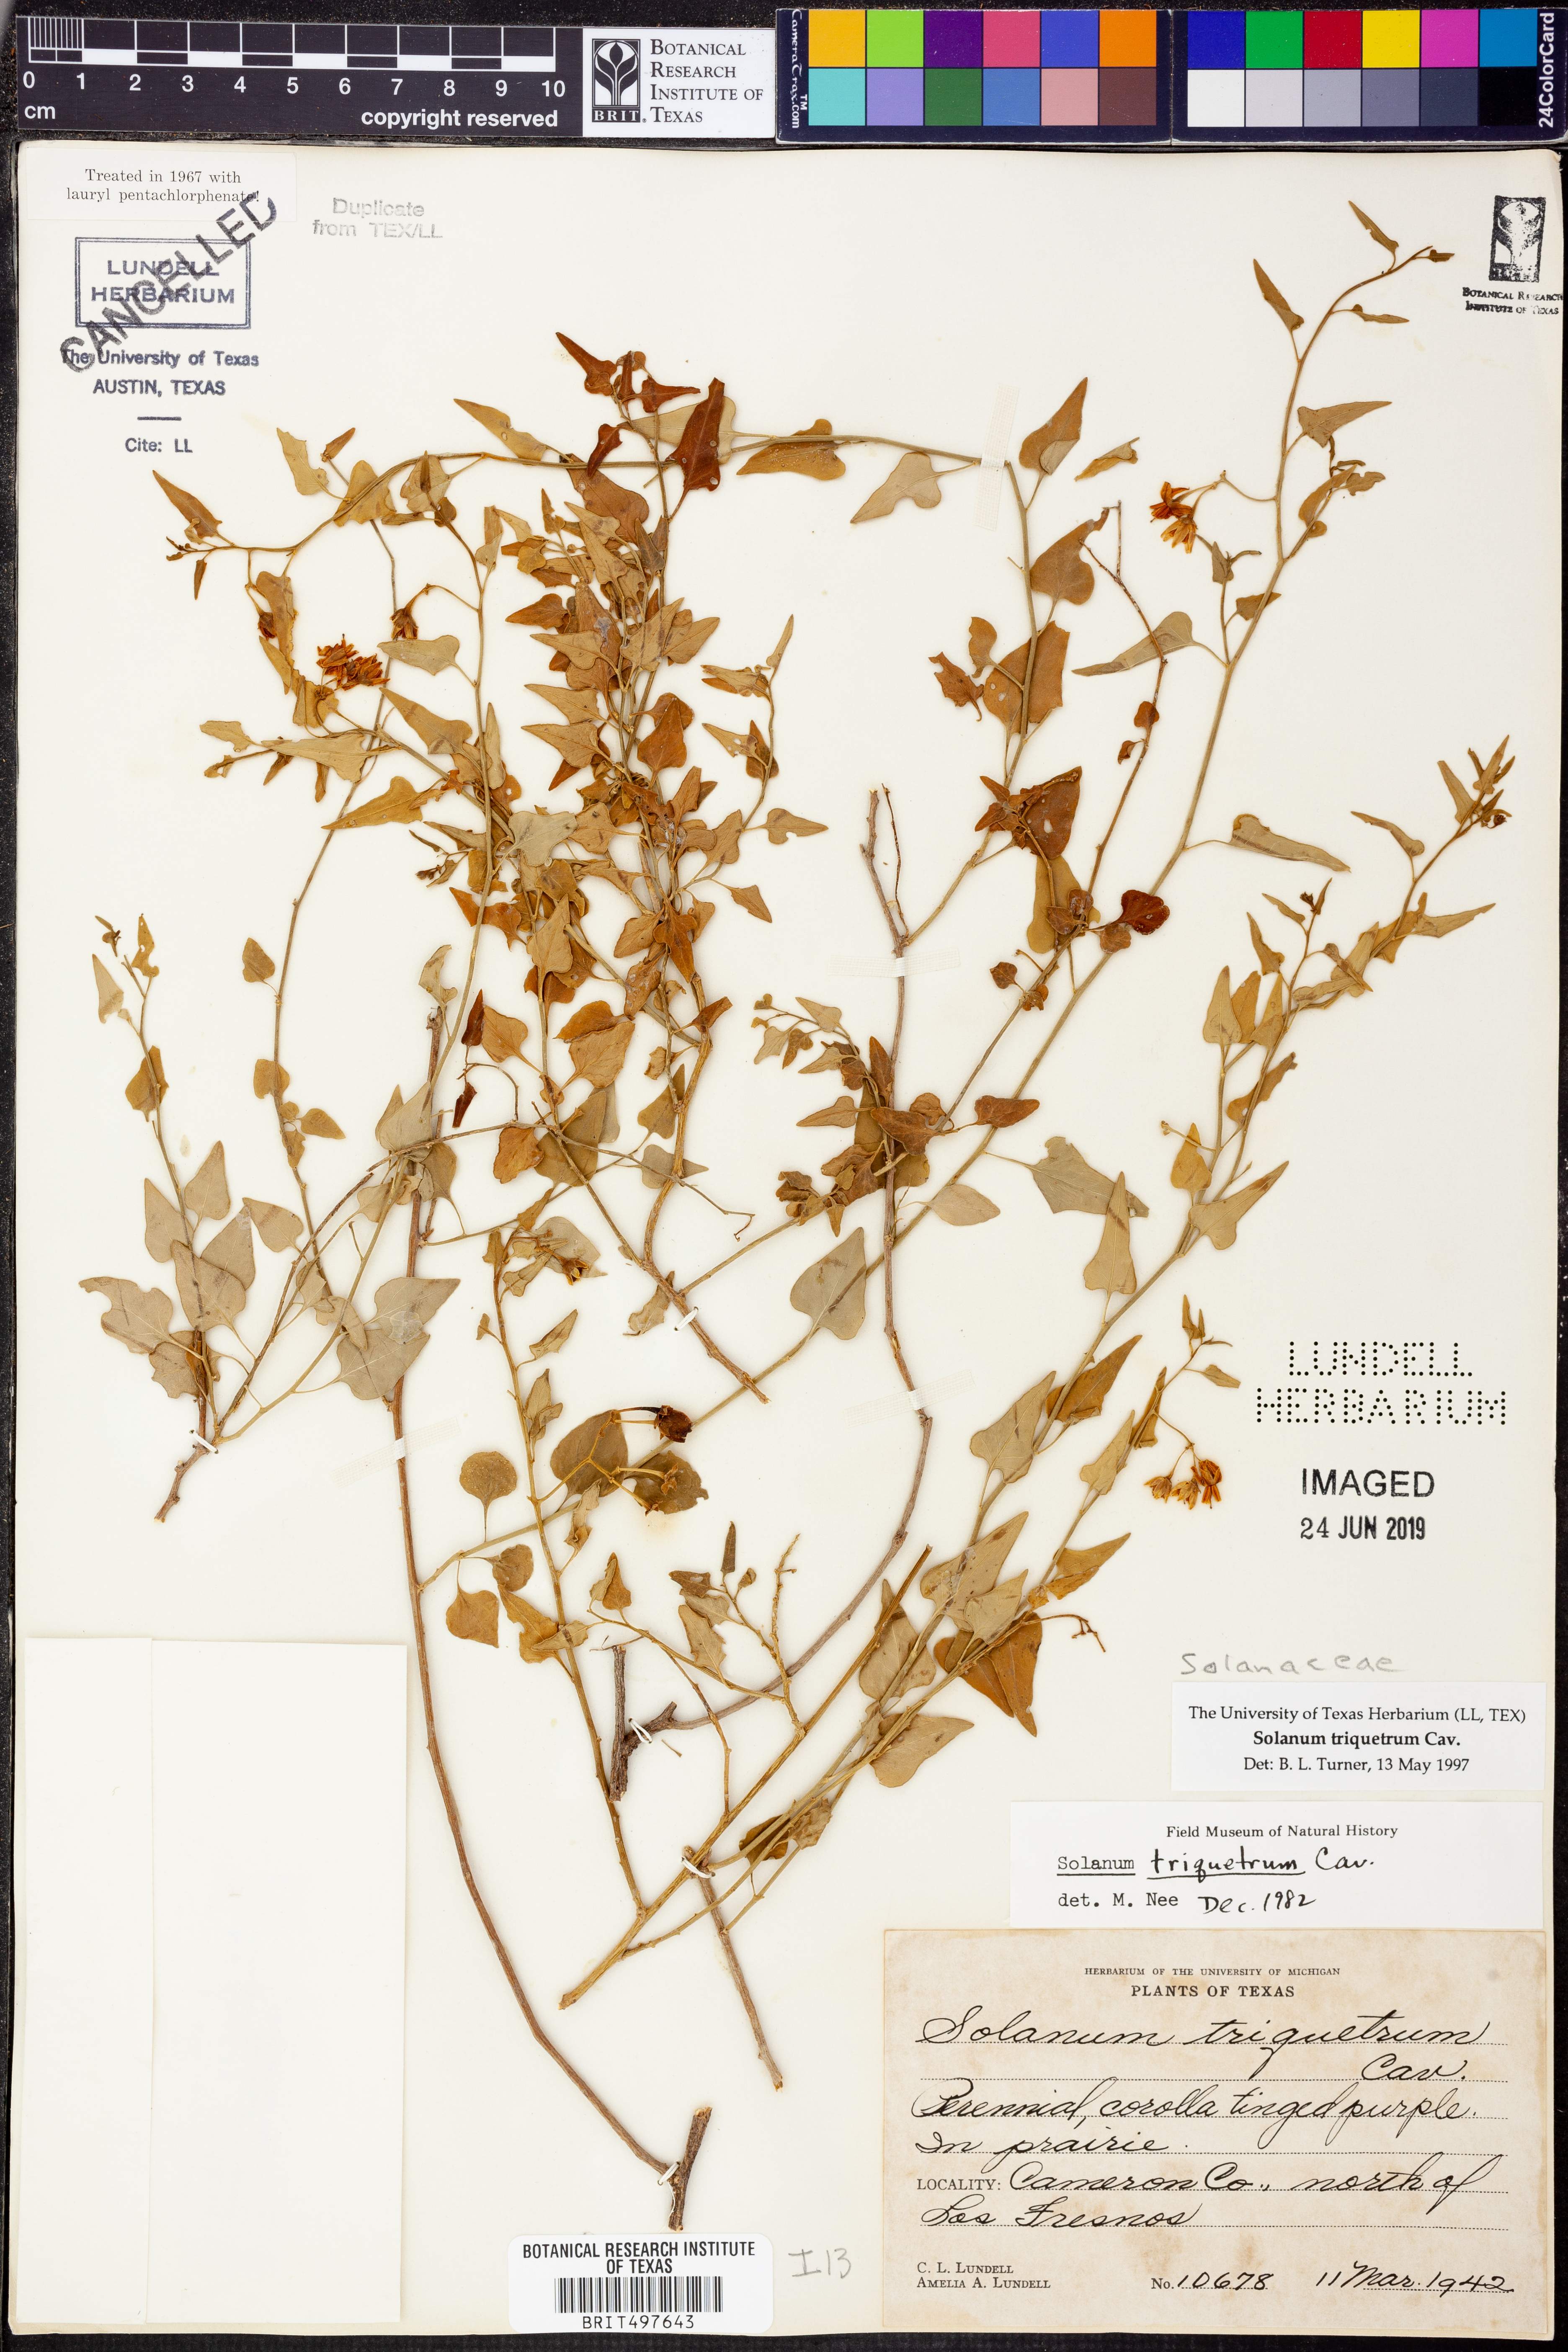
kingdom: Plantae
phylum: Tracheophyta
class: Magnoliopsida
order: Solanales
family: Solanaceae
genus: Solanum
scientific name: Solanum triquetrum
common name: Texas nightshade
